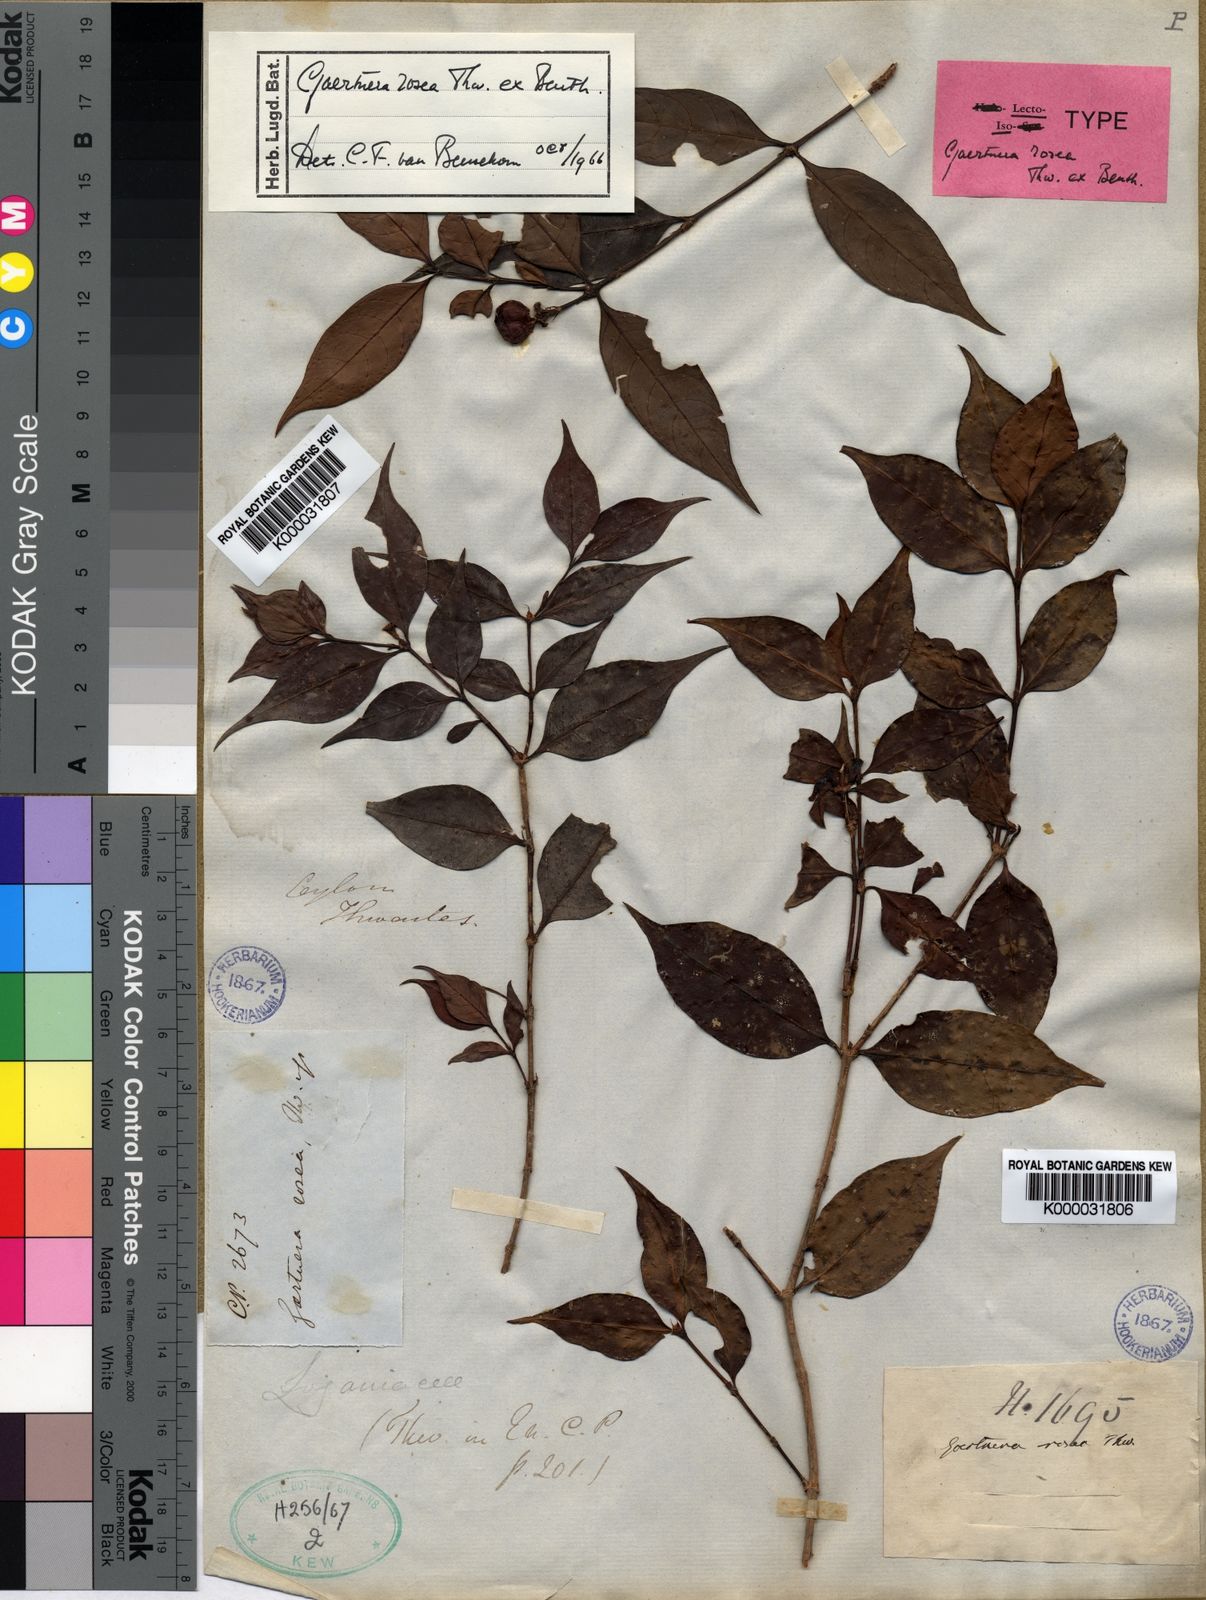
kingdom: Plantae
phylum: Tracheophyta
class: Magnoliopsida
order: Gentianales
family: Rubiaceae
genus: Gaertnera
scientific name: Gaertnera
